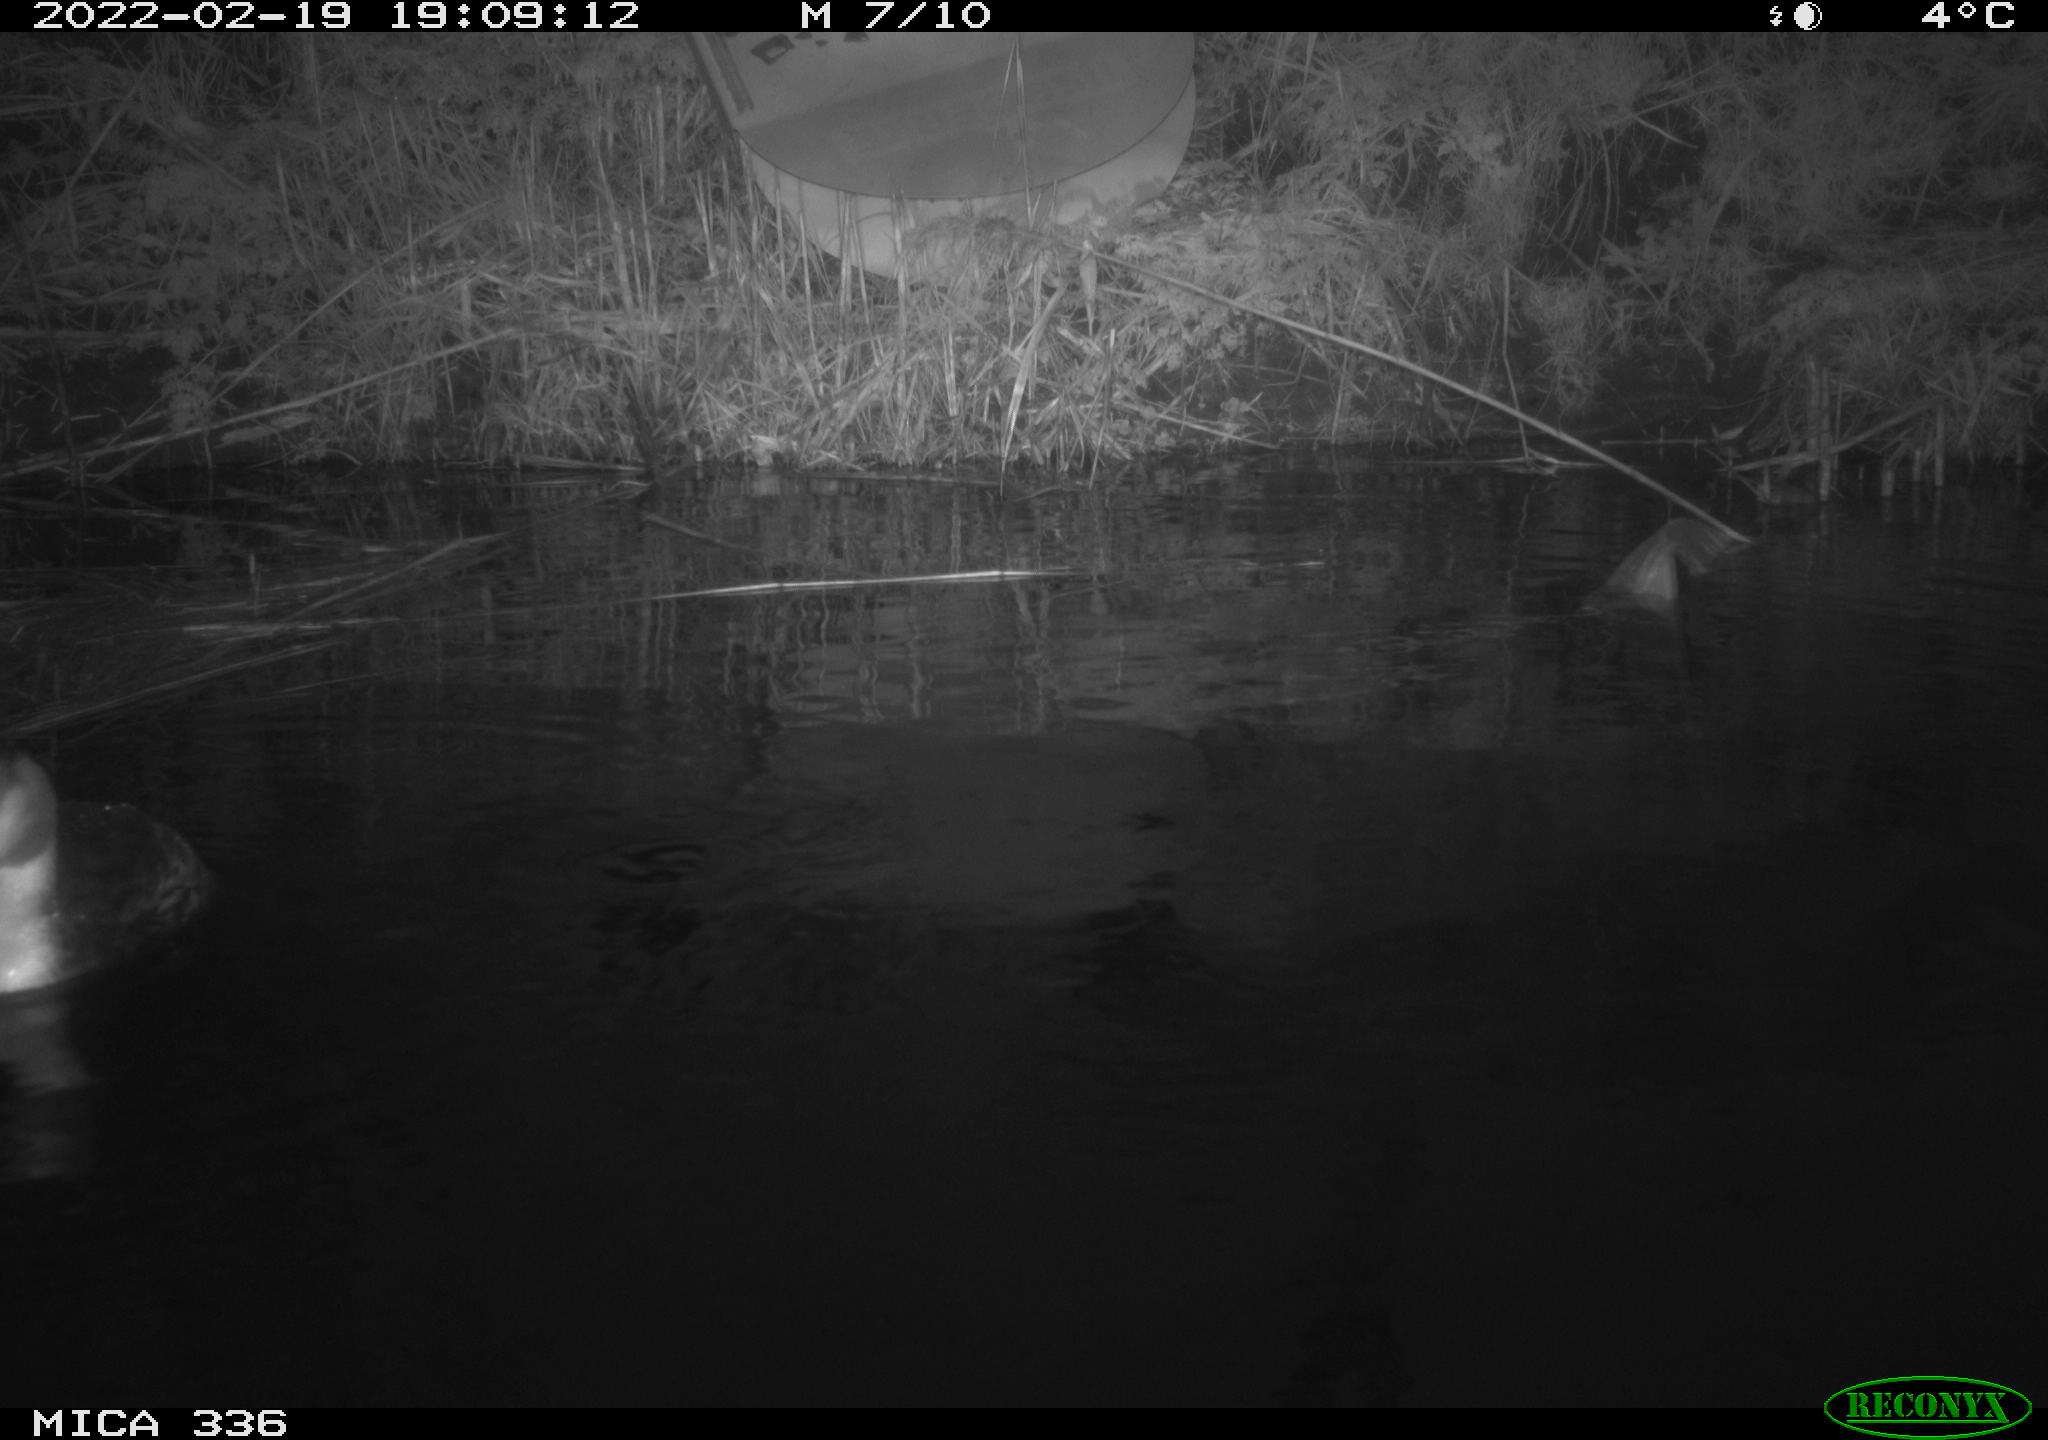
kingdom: Animalia
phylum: Chordata
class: Aves
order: Suliformes
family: Phalacrocoracidae
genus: Phalacrocorax
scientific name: Phalacrocorax carbo
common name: Great cormorant
